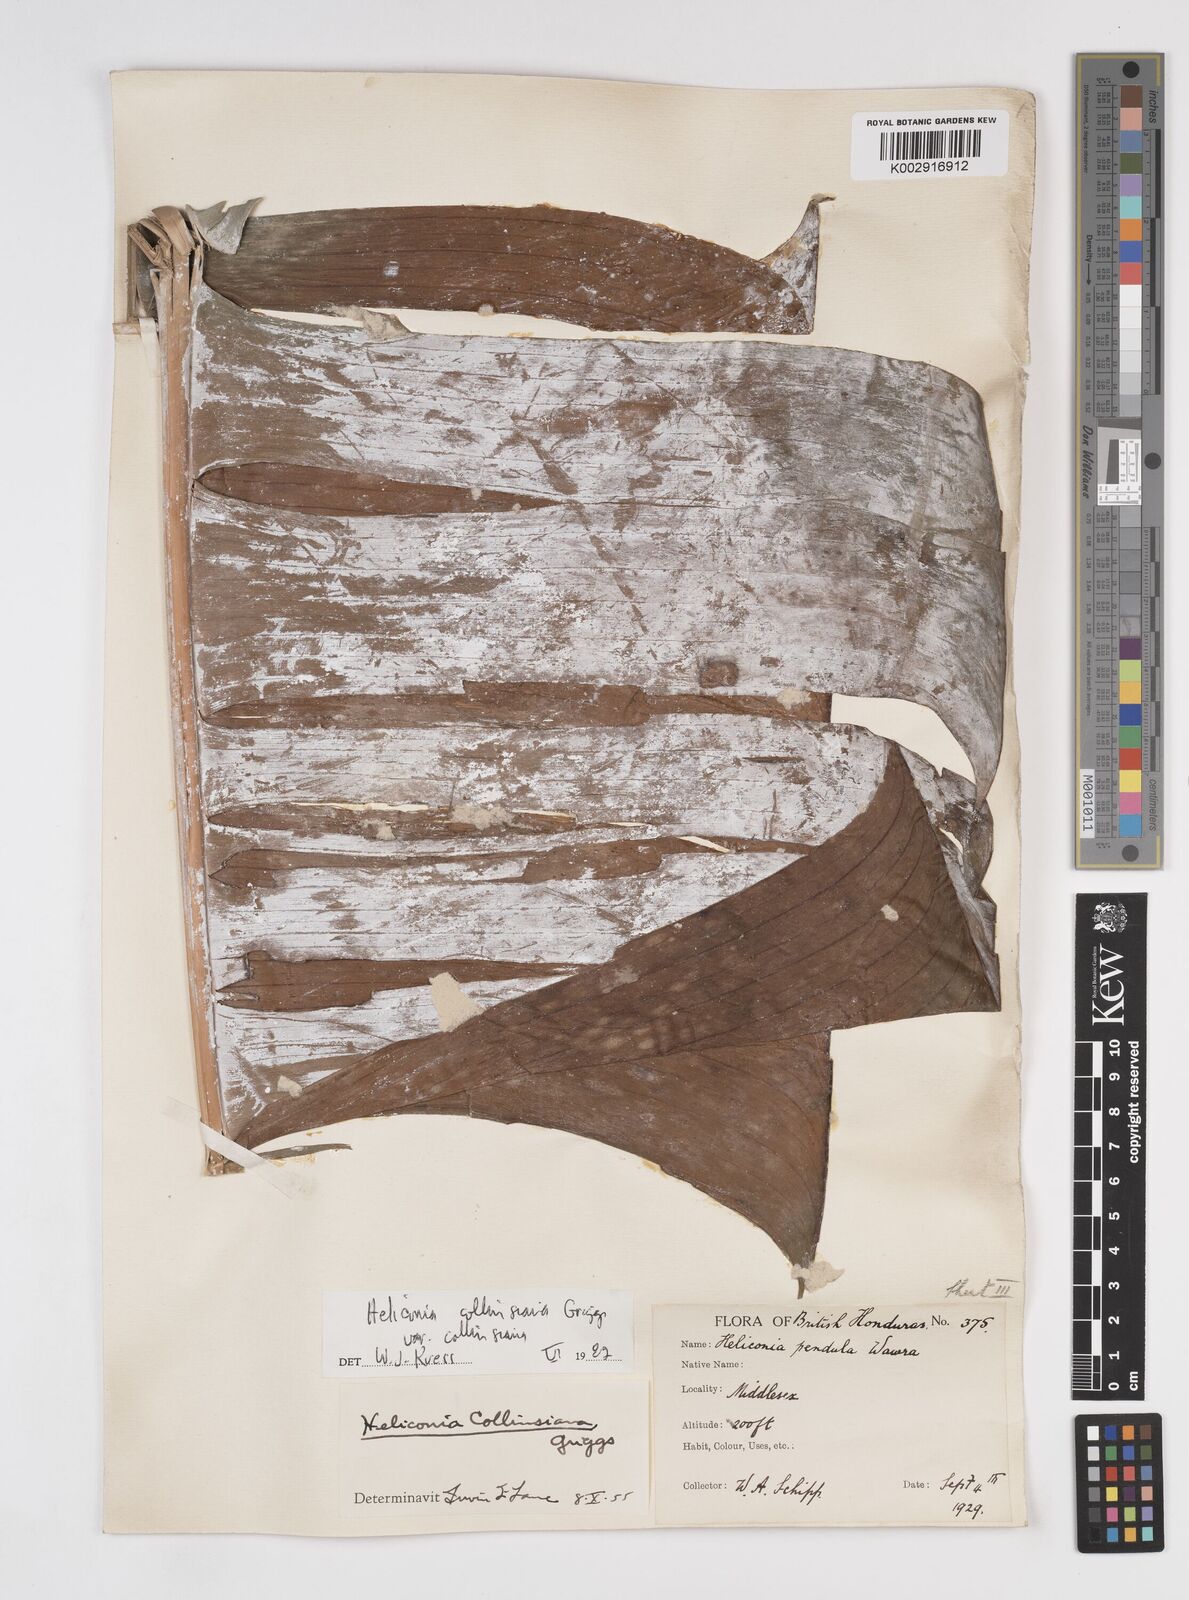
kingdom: Plantae
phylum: Tracheophyta
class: Liliopsida
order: Zingiberales
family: Heliconiaceae
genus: Heliconia
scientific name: Heliconia collinsiana
